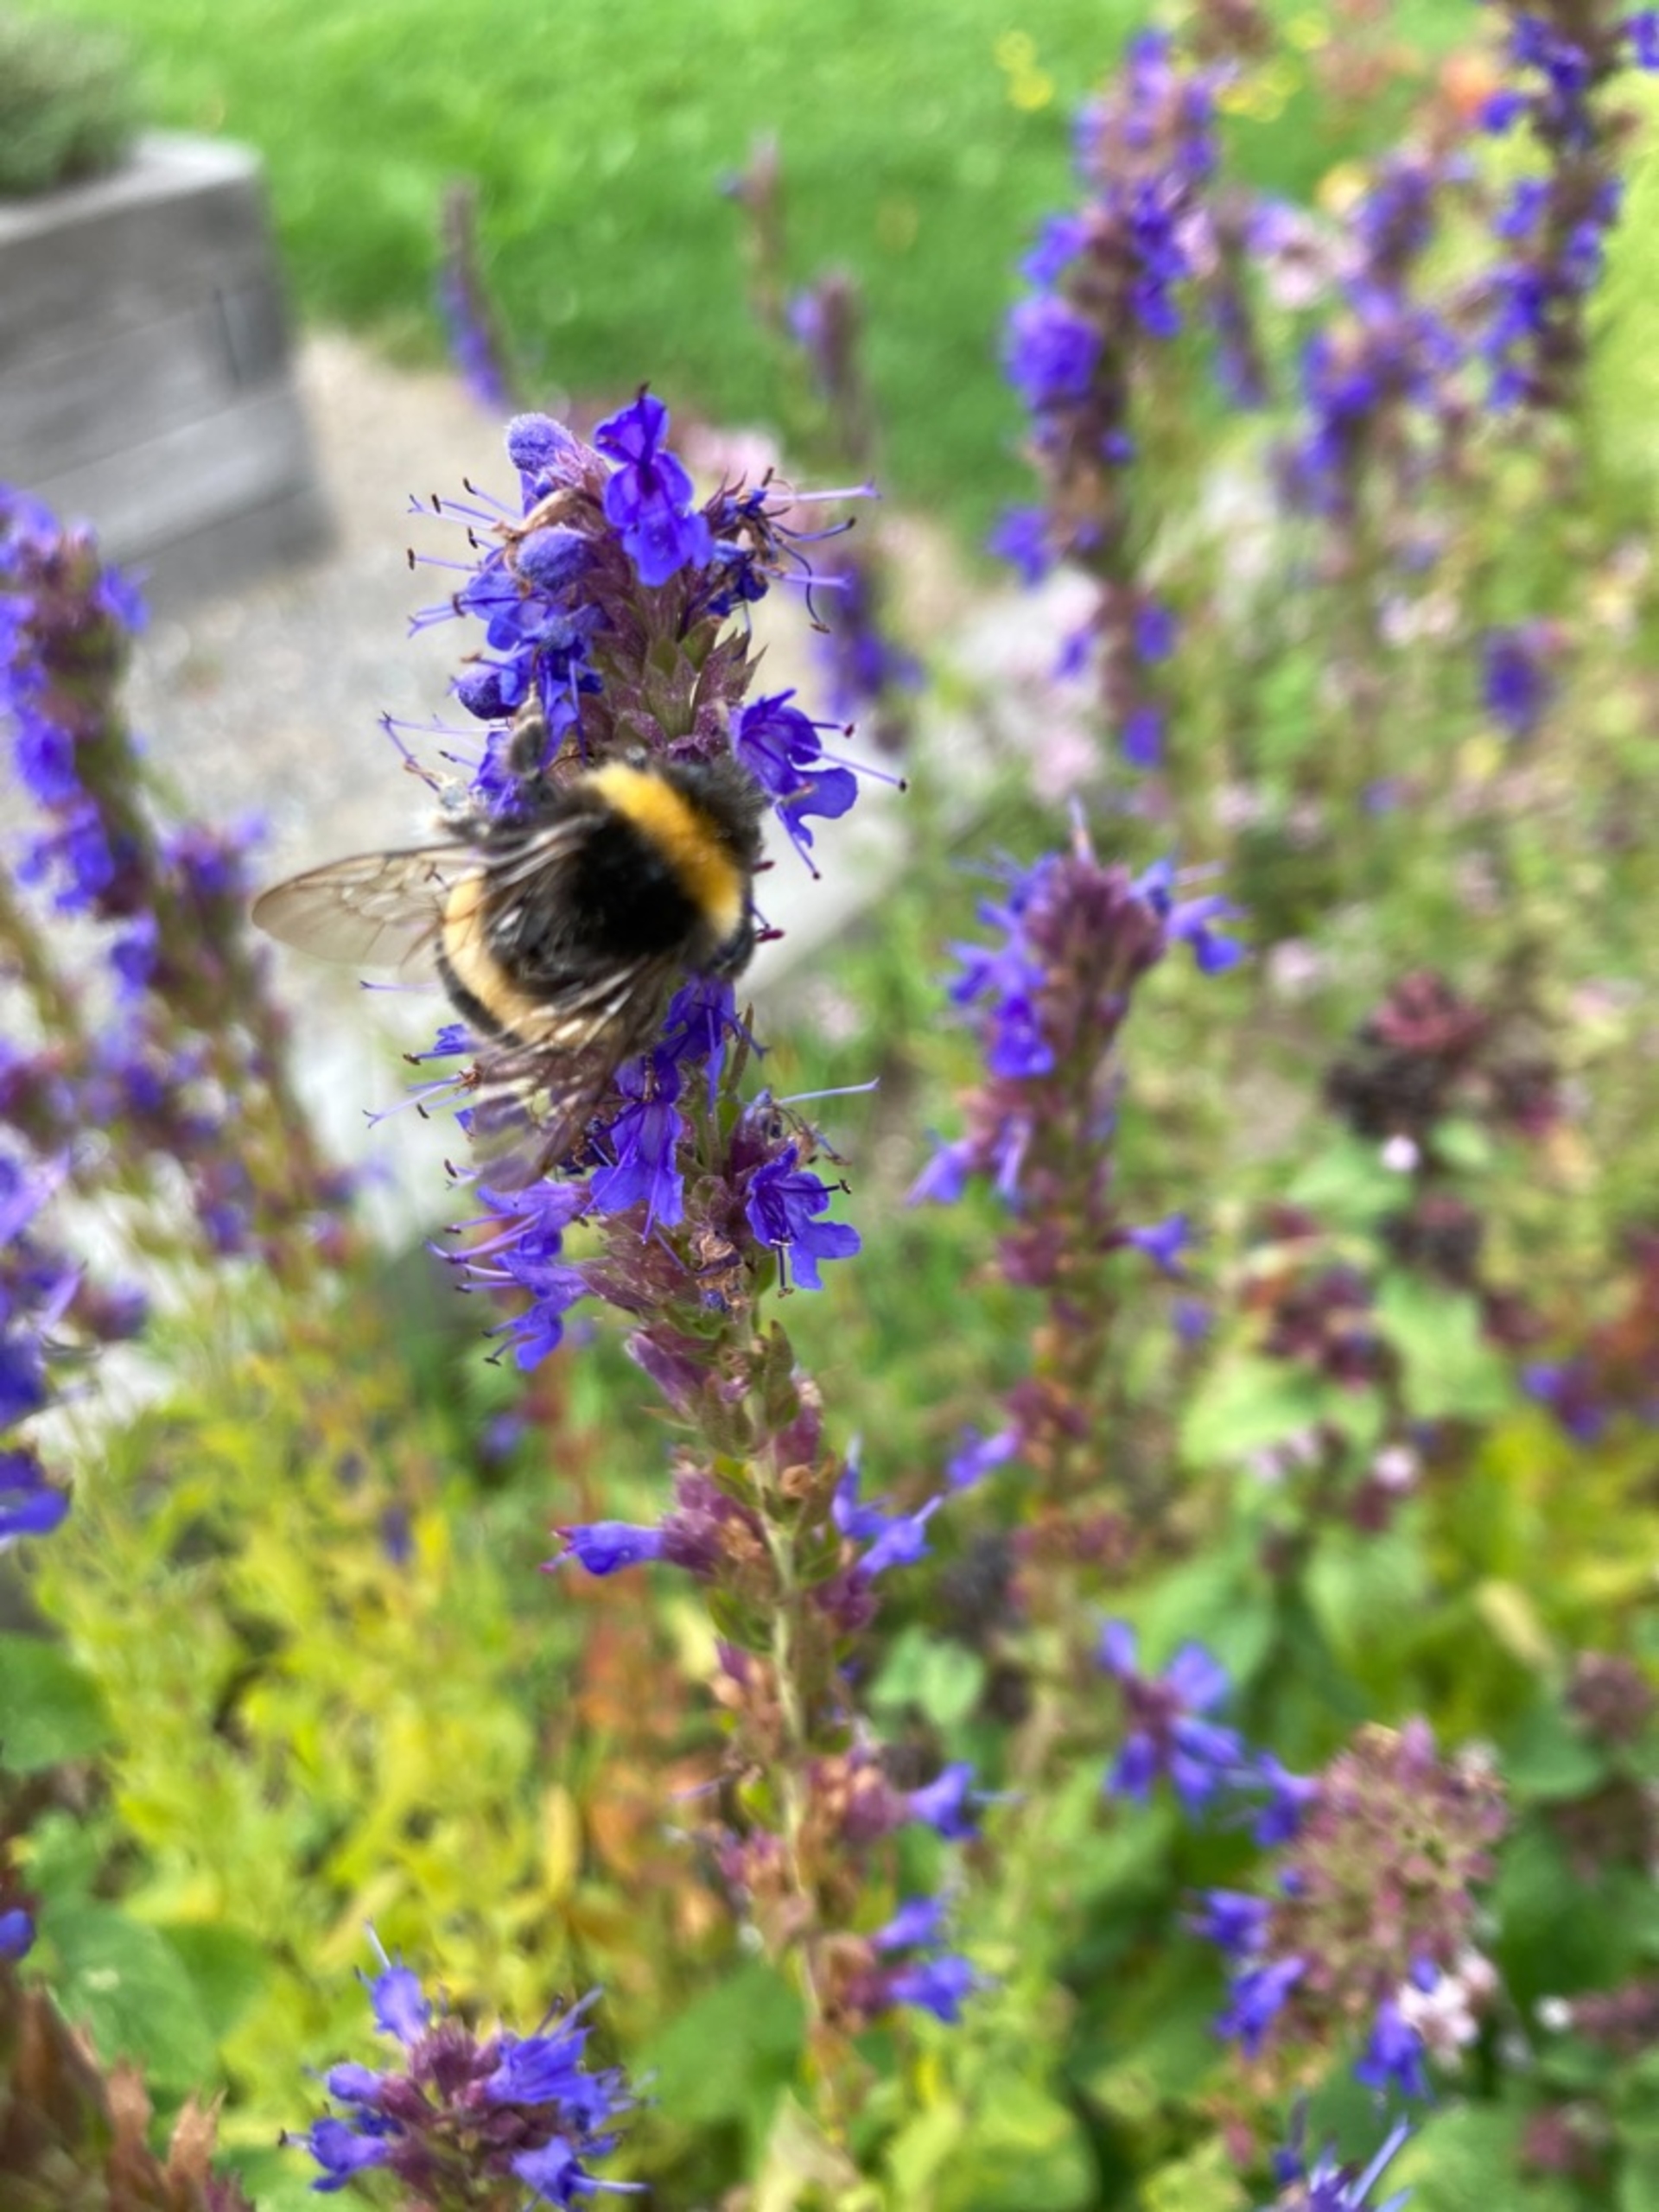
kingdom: Animalia
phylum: Arthropoda
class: Insecta
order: Hymenoptera
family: Apidae
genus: Bombus
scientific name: Bombus
